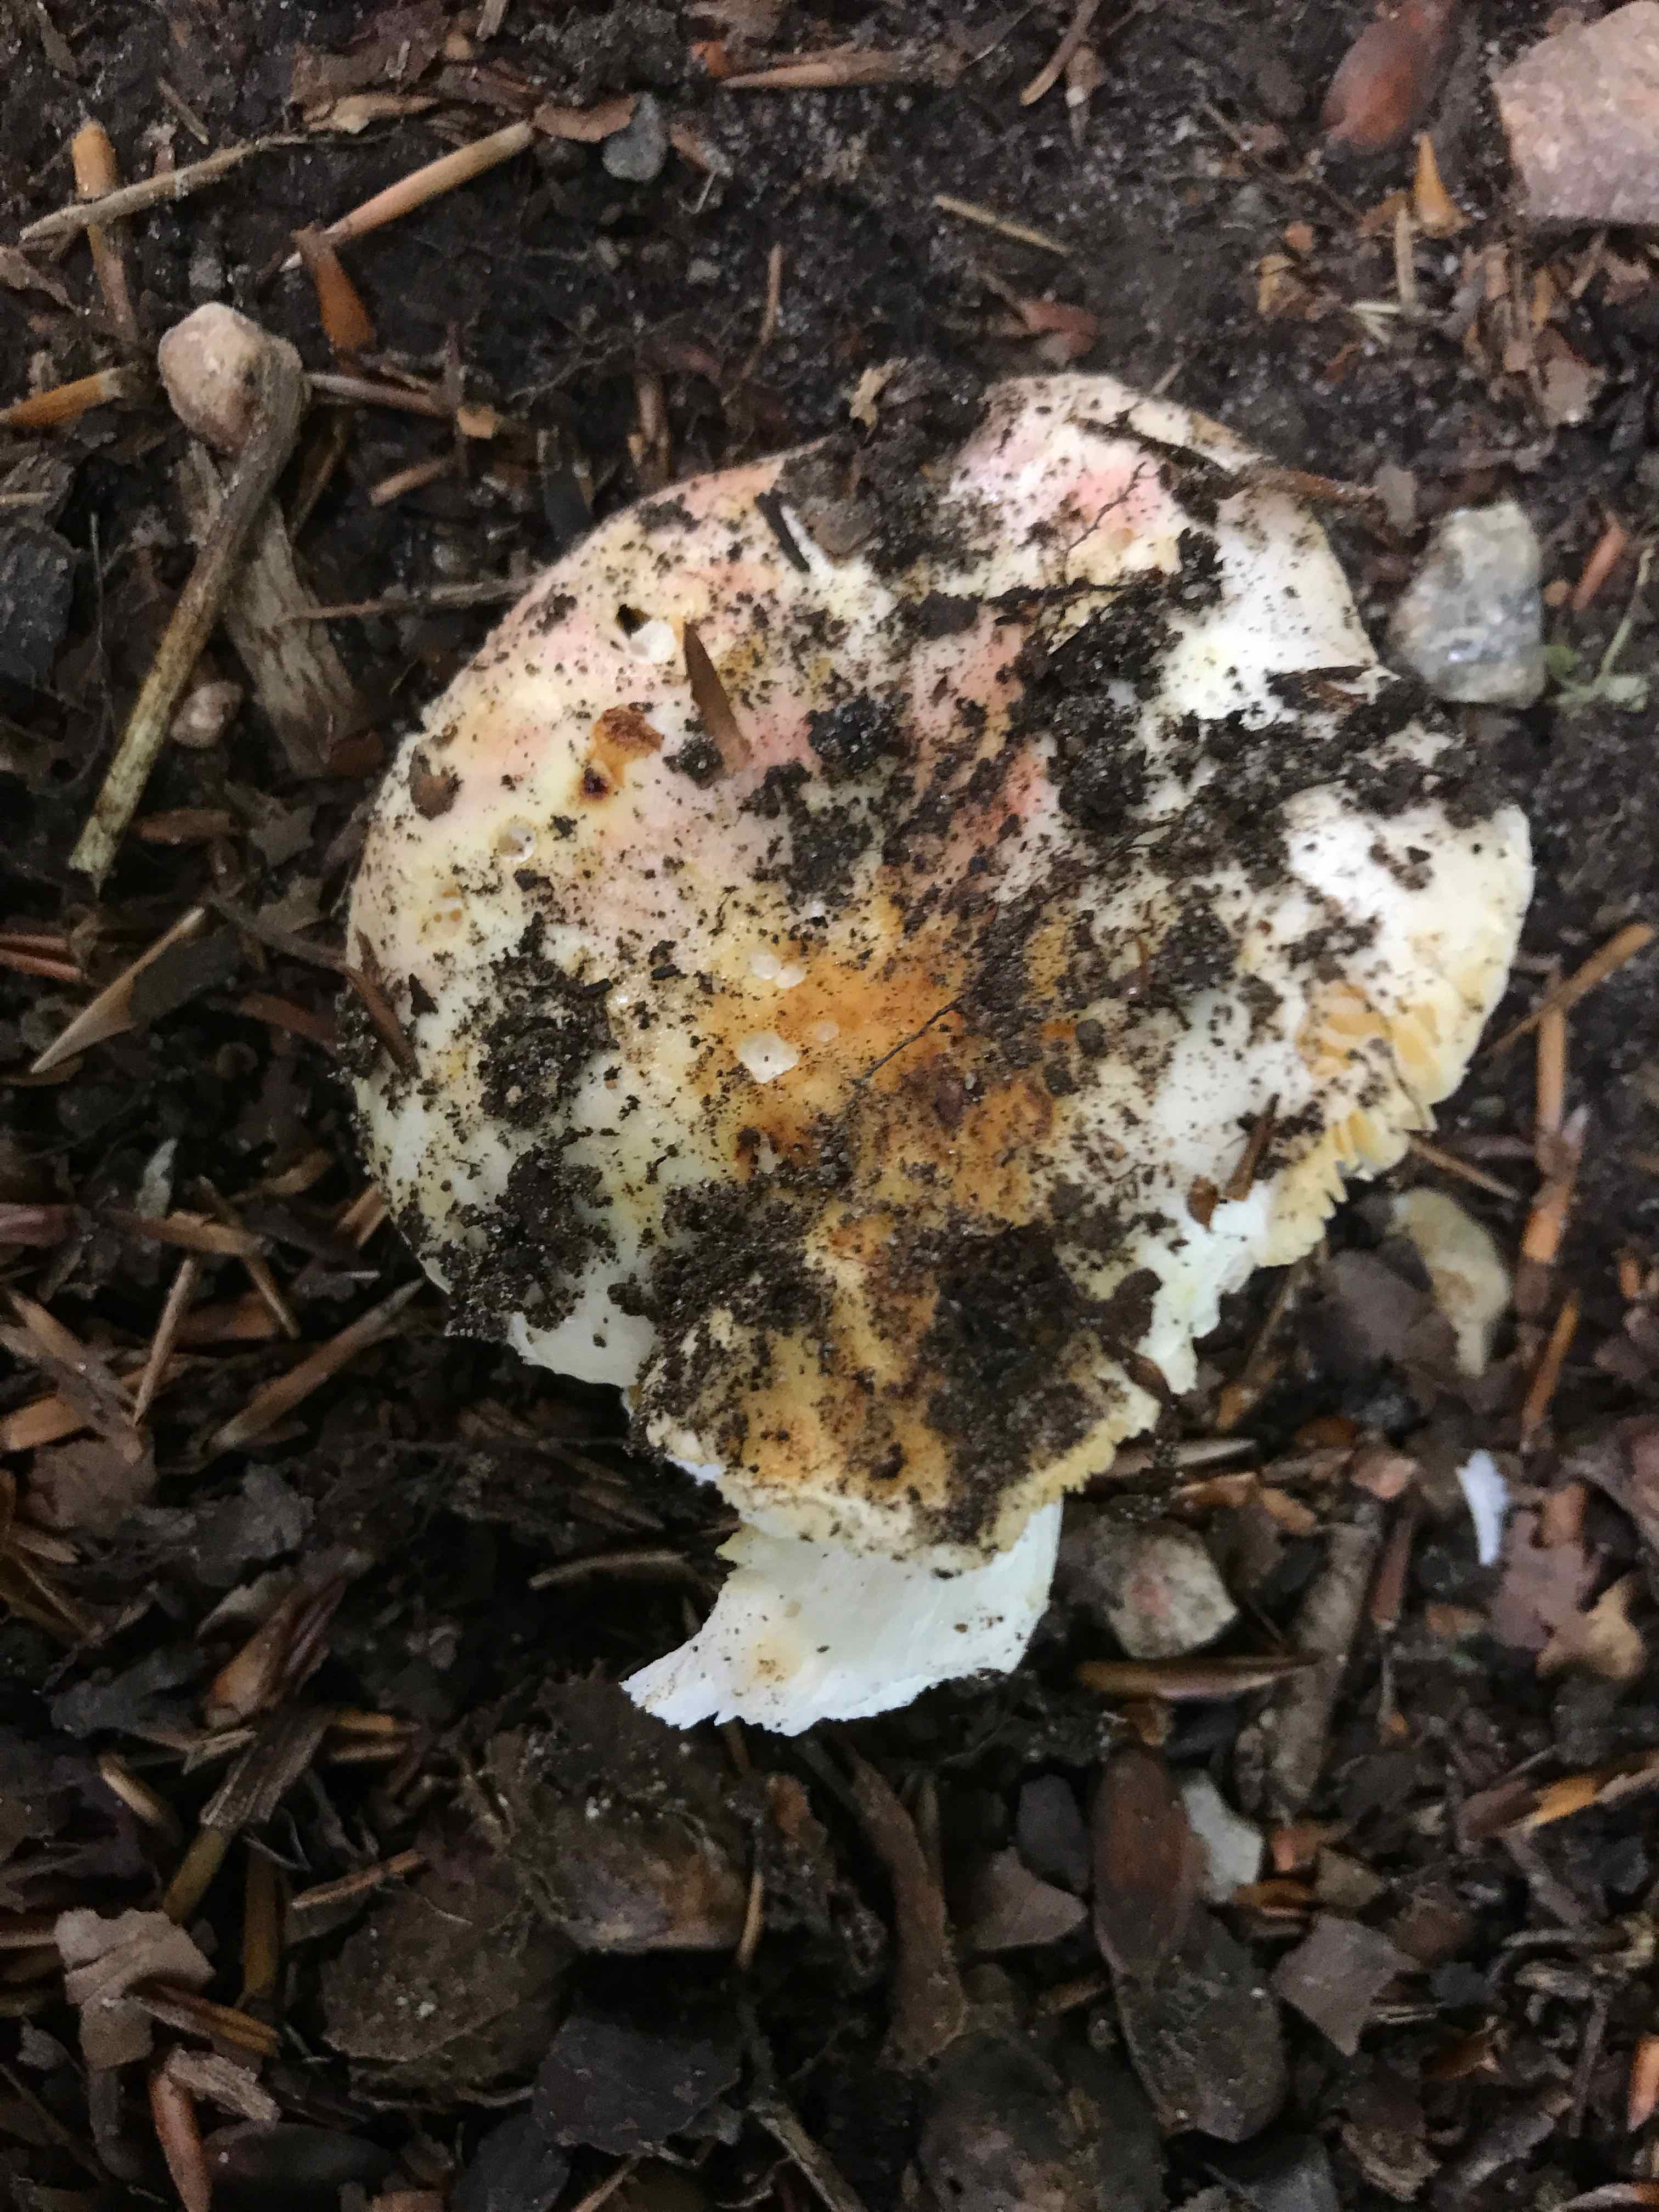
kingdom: Fungi
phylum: Basidiomycota
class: Agaricomycetes
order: Russulales
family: Russulaceae
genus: Russula
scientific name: Russula
